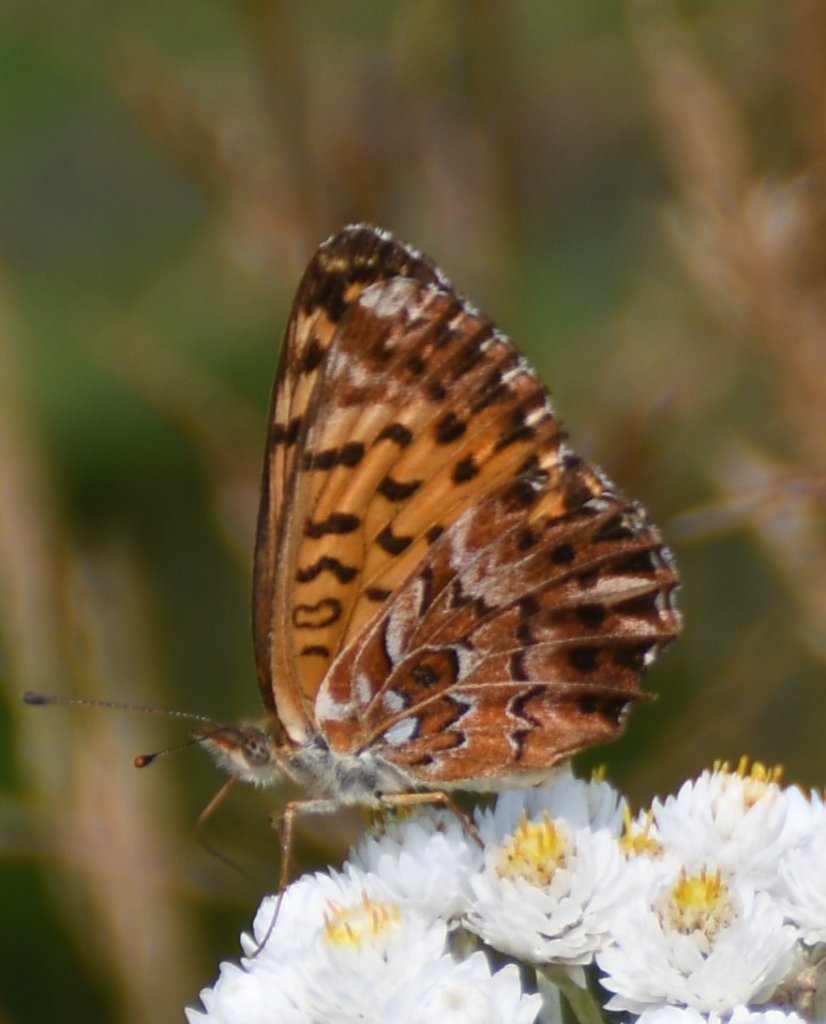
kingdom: Animalia
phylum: Arthropoda
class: Insecta
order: Lepidoptera
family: Nymphalidae
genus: Boloria
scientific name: Boloria chariclea
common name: Arctic Fritillary
